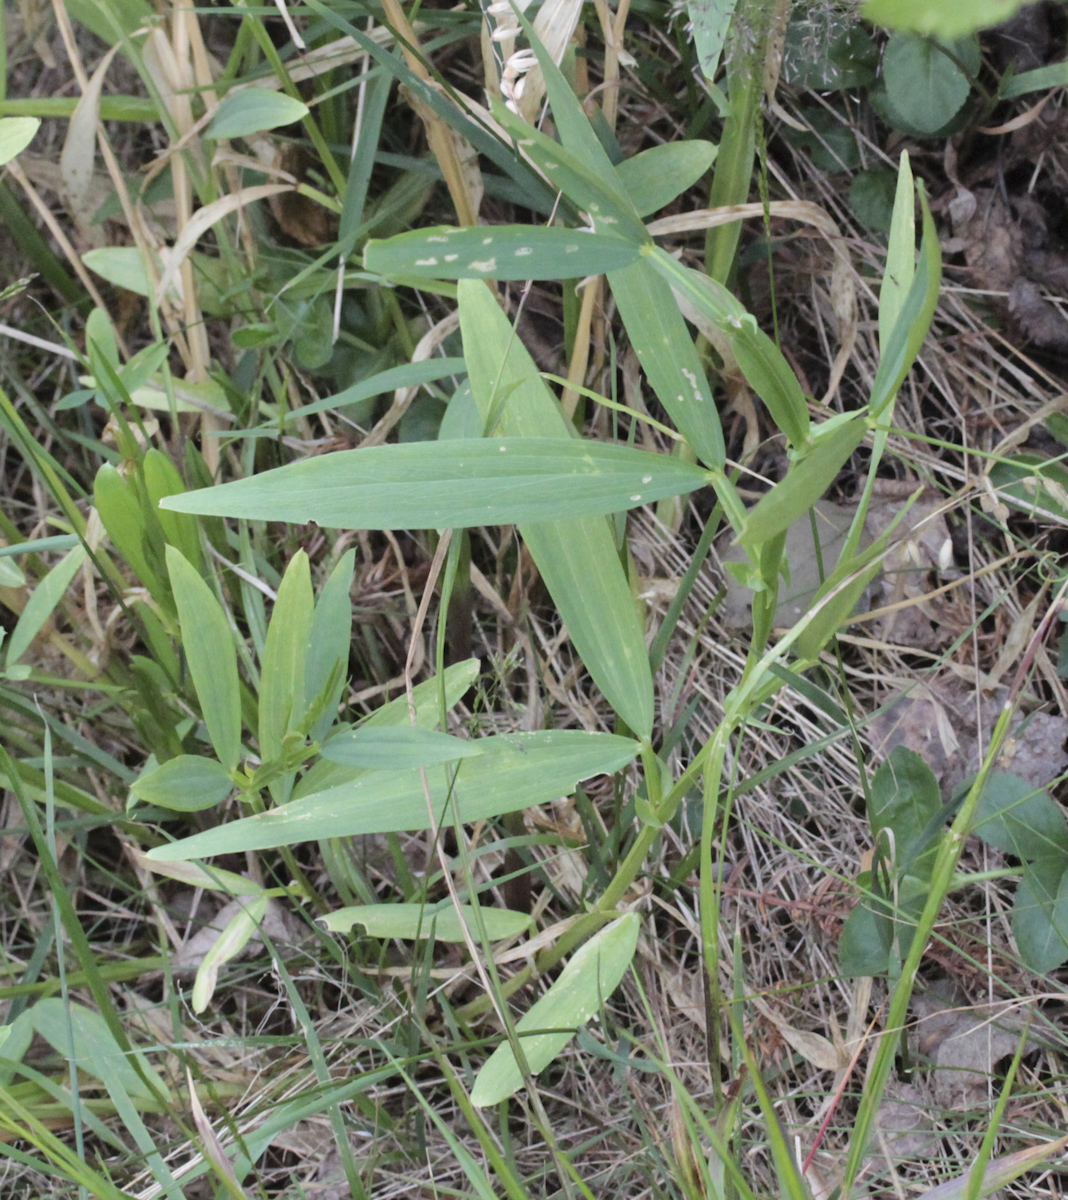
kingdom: Plantae
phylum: Tracheophyta
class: Magnoliopsida
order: Caryophyllales
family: Polygonaceae
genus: Bistorta
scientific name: Bistorta vivipara
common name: Alpine bistort
